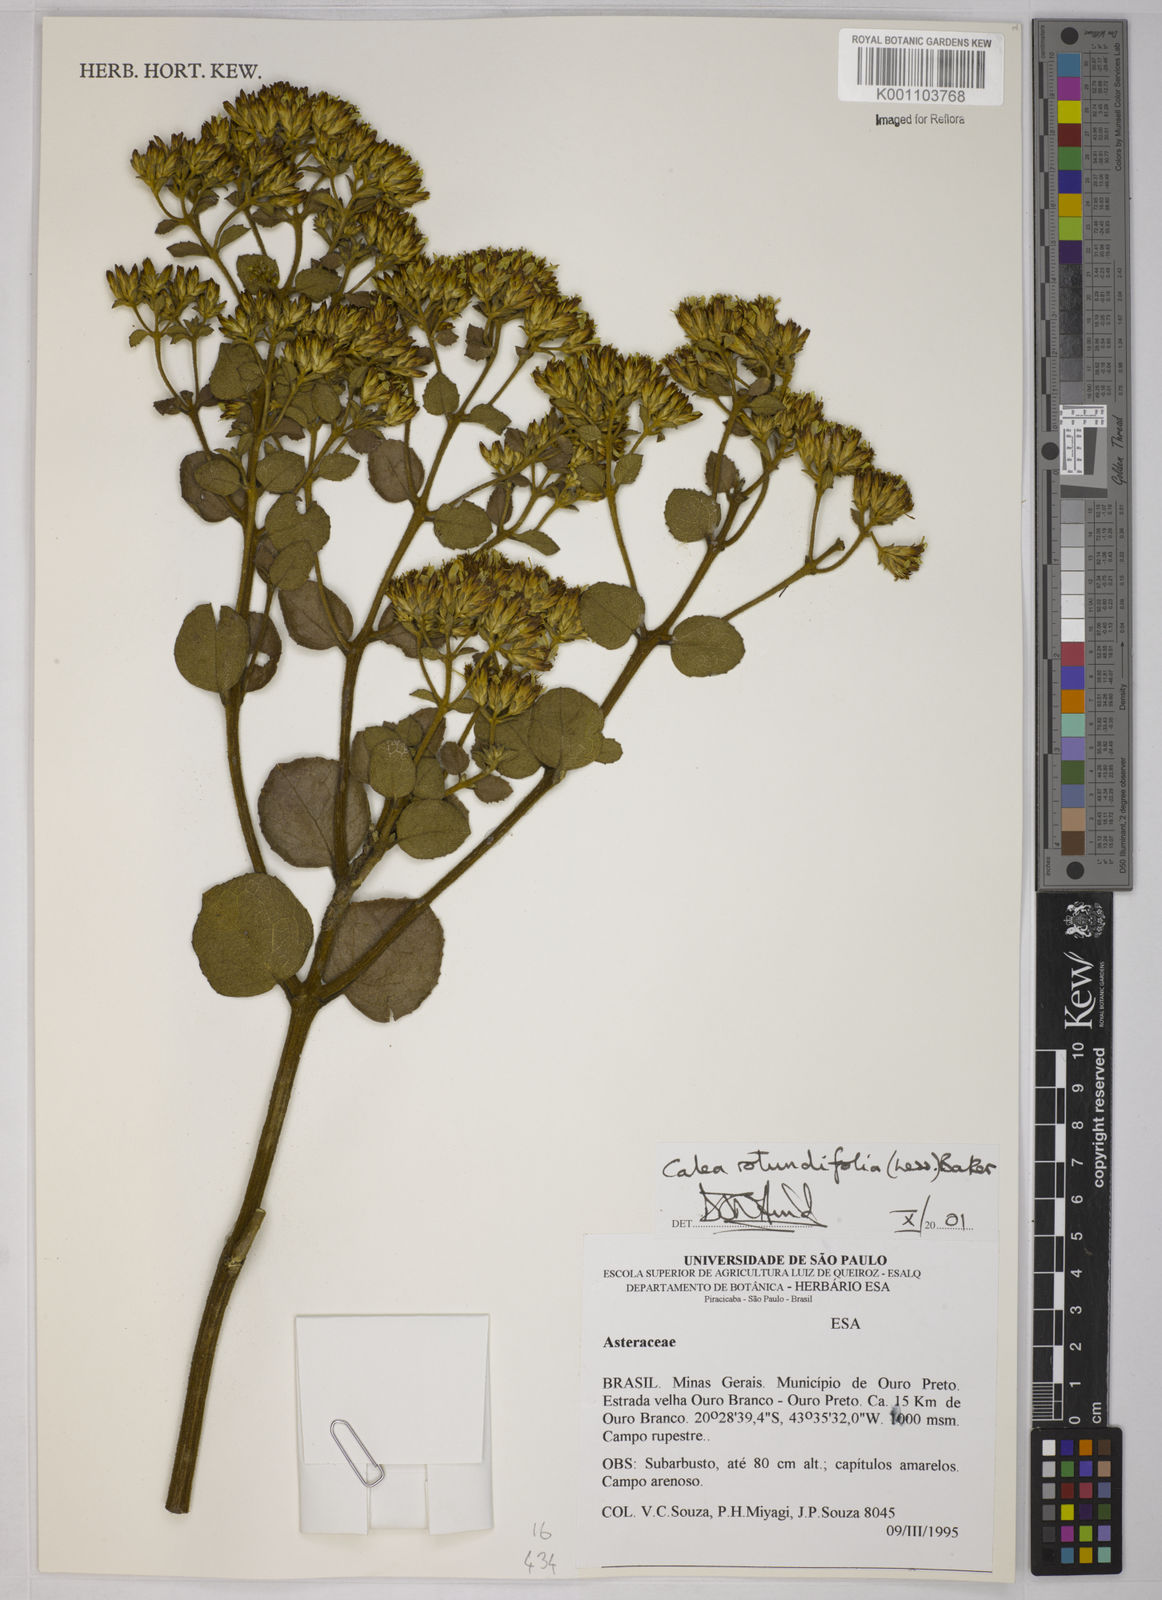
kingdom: Plantae
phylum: Tracheophyta
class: Magnoliopsida
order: Asterales
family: Asteraceae
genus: Calea
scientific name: Calea rotundifolia
